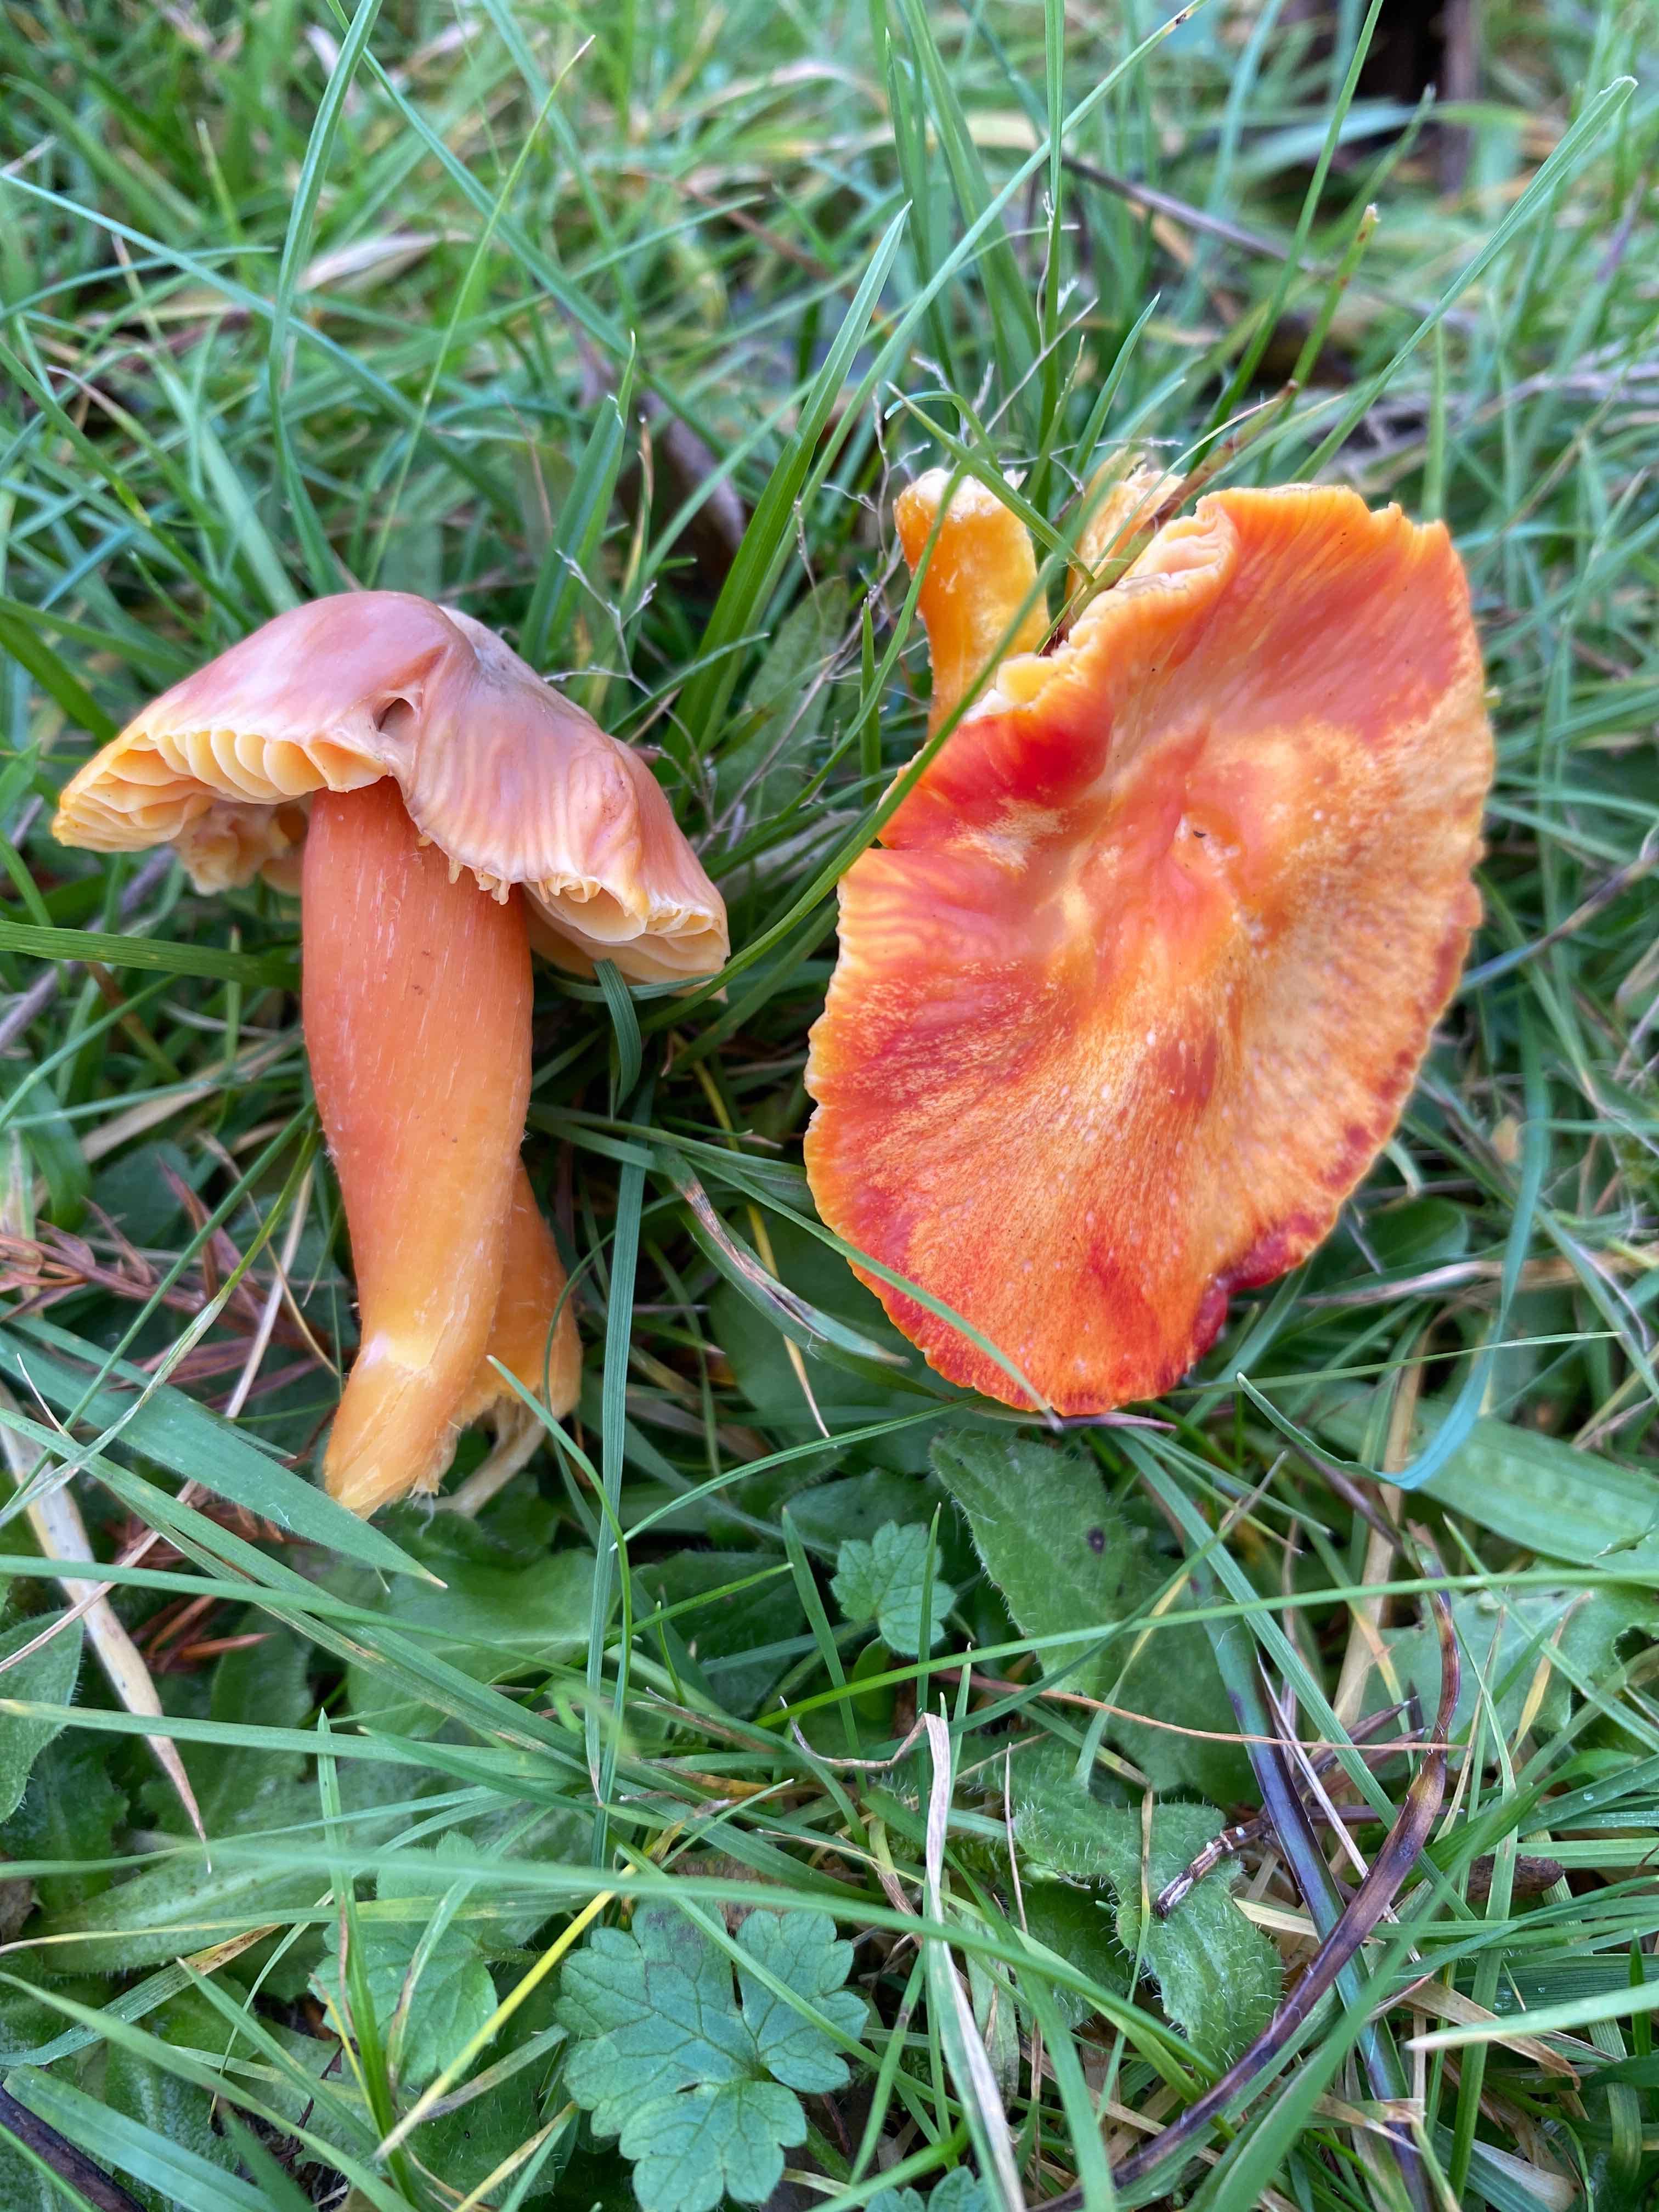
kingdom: Fungi
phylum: Basidiomycota
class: Agaricomycetes
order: Agaricales
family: Hygrophoraceae
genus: Hygrocybe
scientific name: Hygrocybe splendidissima
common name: knaldrød vokshat
